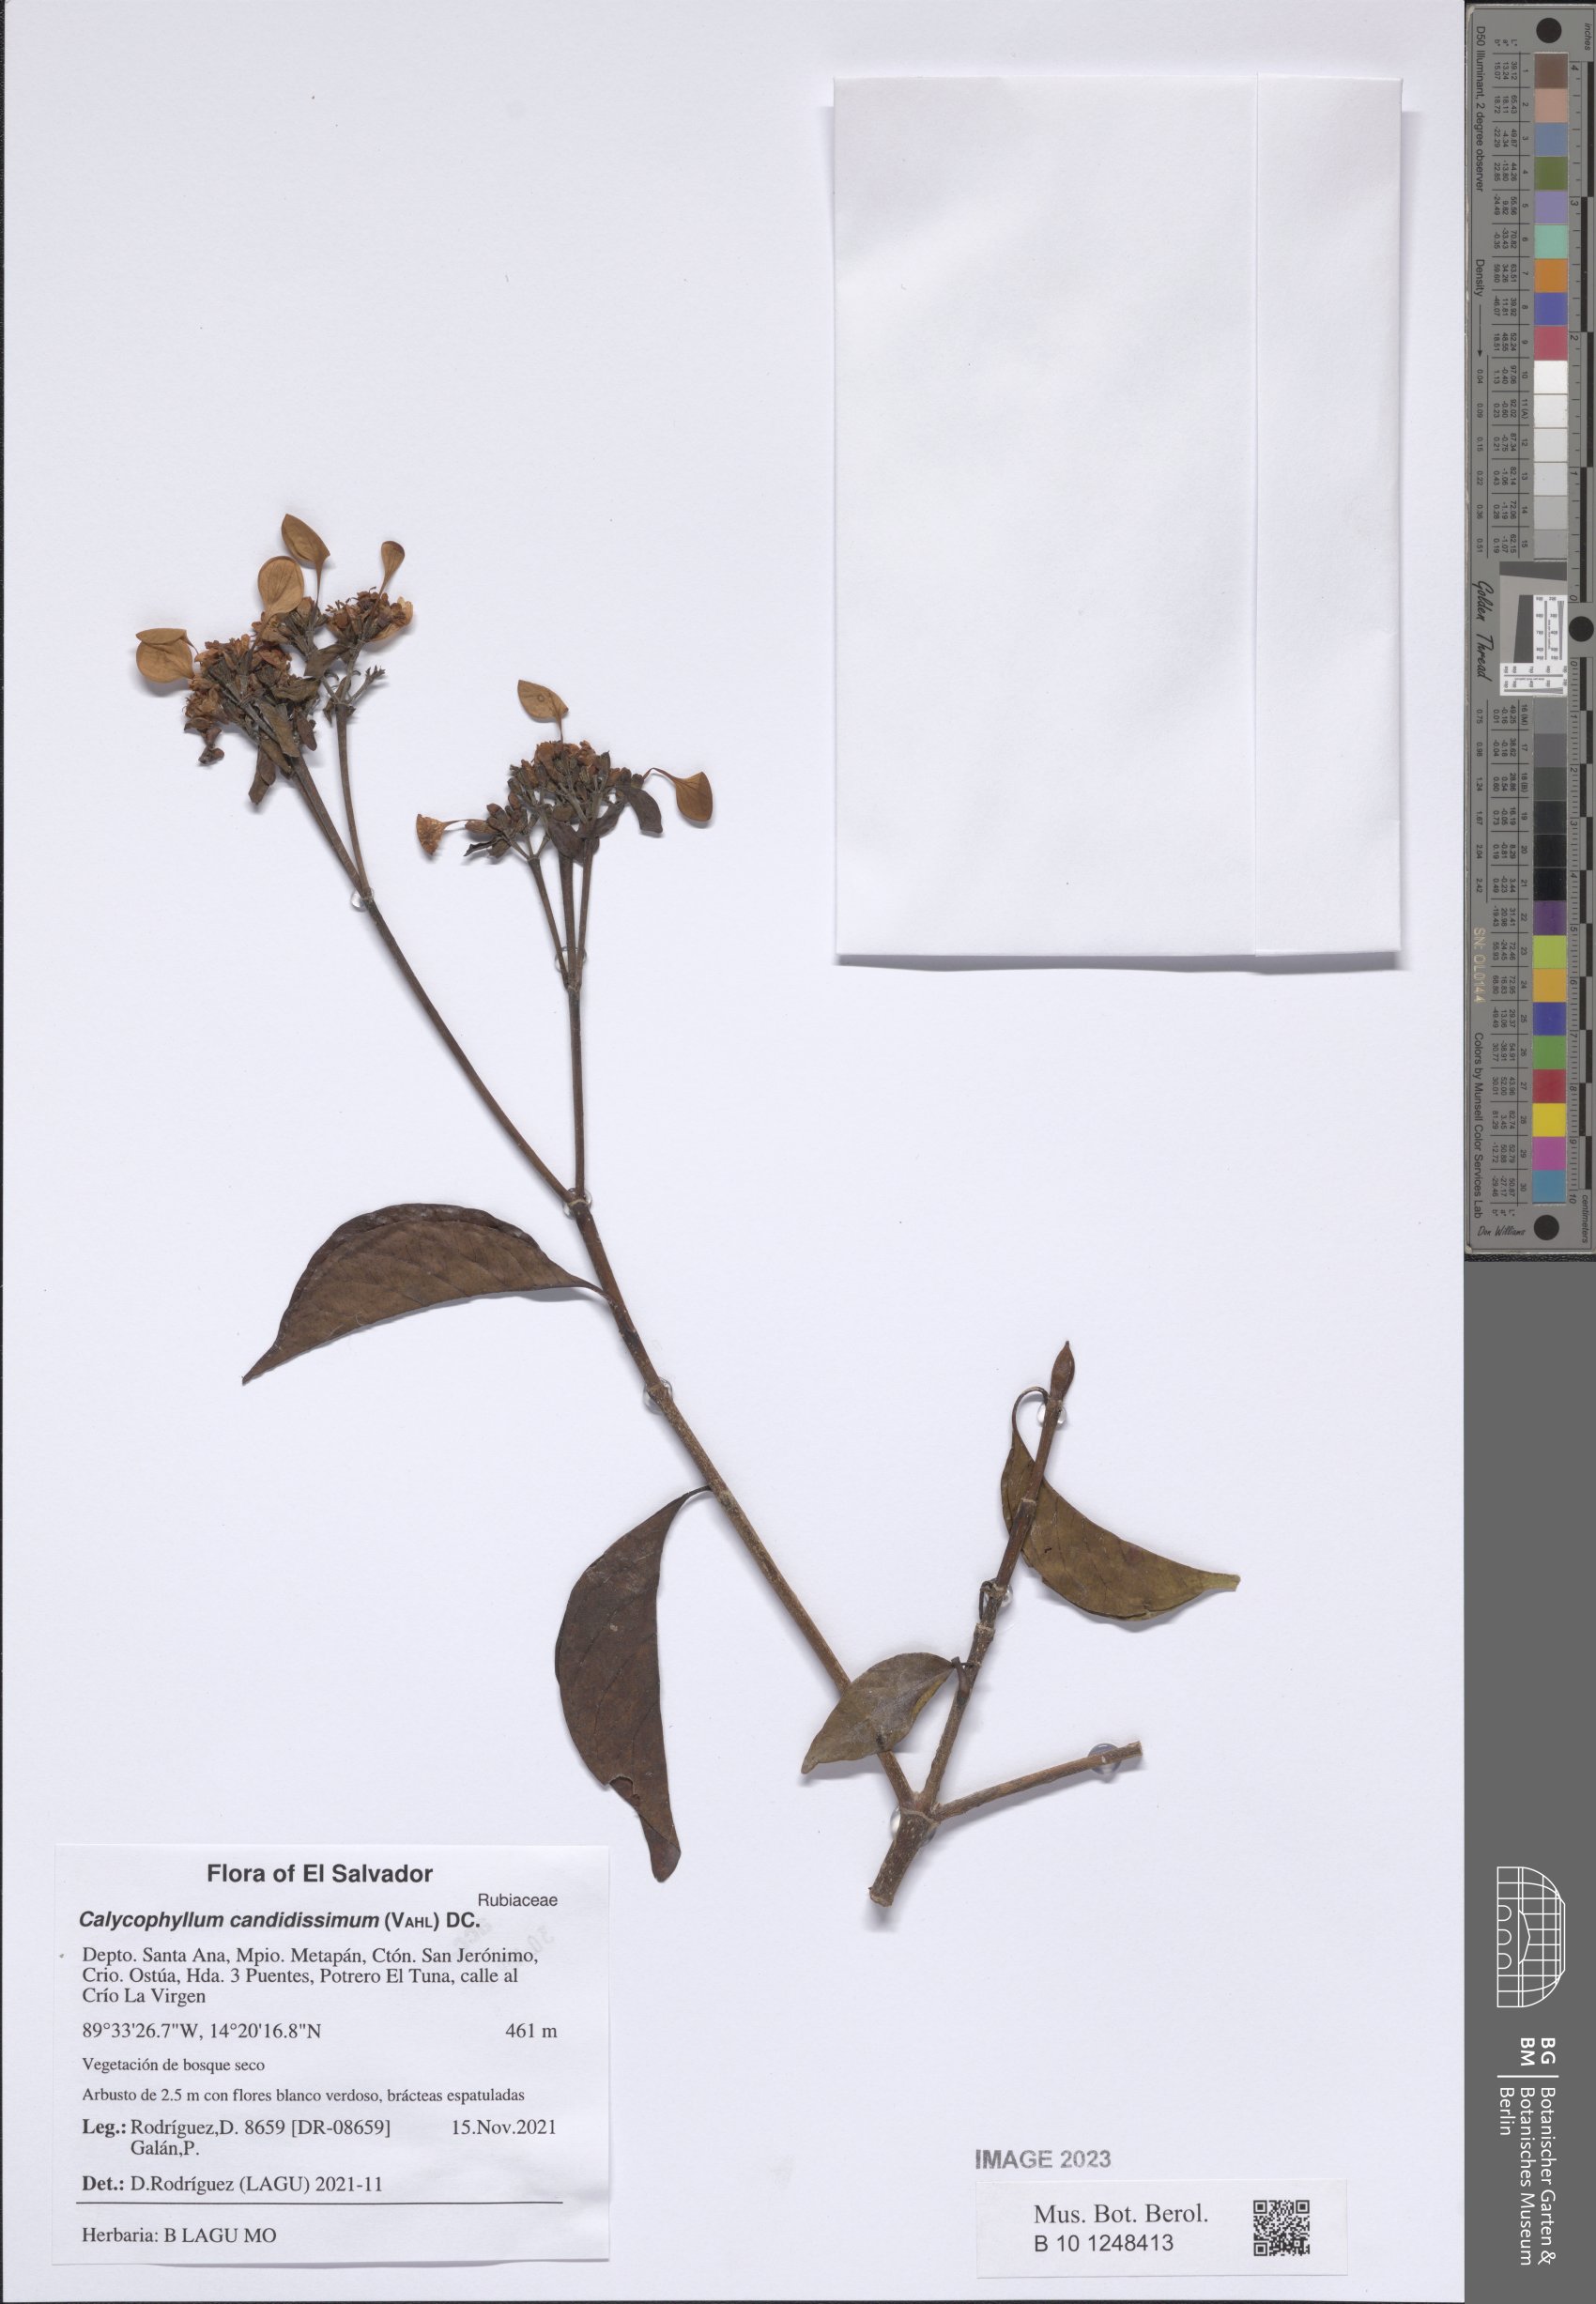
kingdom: Plantae
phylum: Tracheophyta
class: Magnoliopsida
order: Gentianales
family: Rubiaceae
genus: Calycophyllum
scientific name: Calycophyllum candidissimum
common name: Dagame
